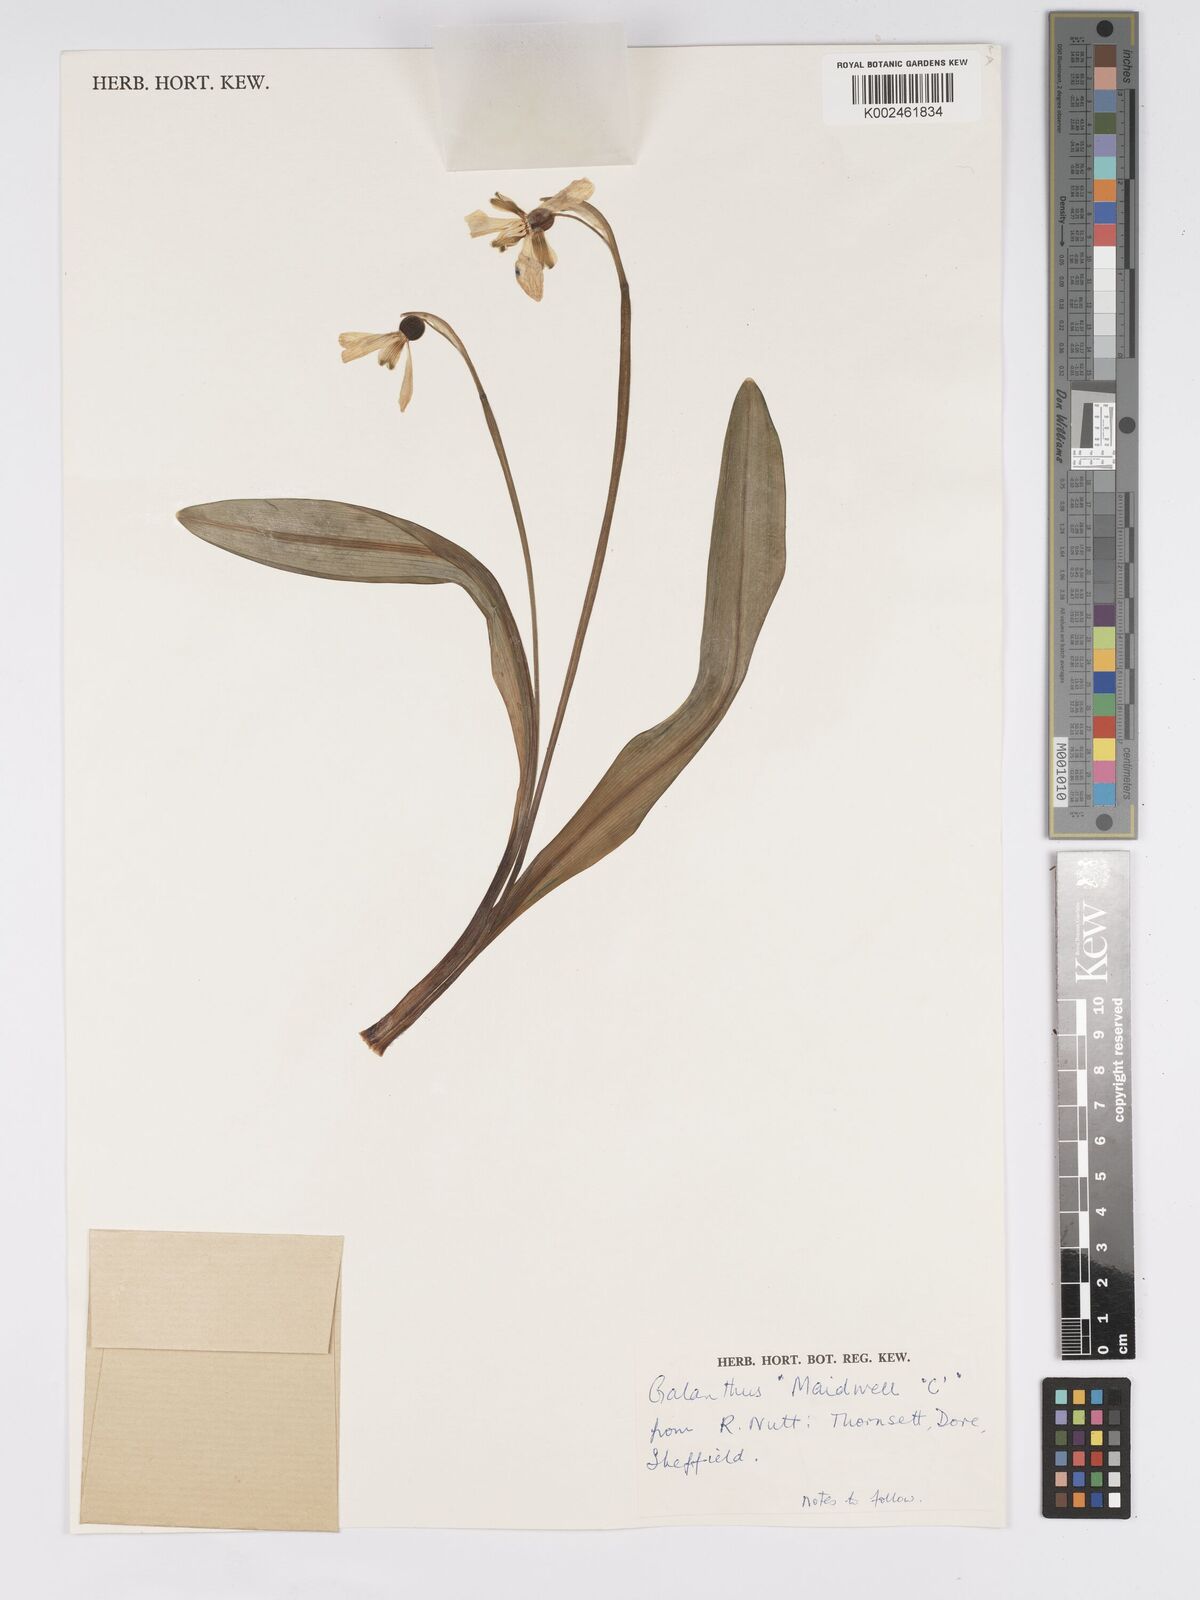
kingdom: Plantae
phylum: Tracheophyta
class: Liliopsida
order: Asparagales
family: Amaryllidaceae
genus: Galanthus
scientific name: Galanthus
